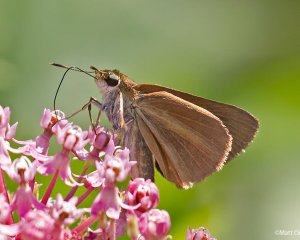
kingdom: Animalia
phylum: Arthropoda
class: Insecta
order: Lepidoptera
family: Hesperiidae
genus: Euphyes
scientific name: Euphyes dukesi
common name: Dukes' Skipper
